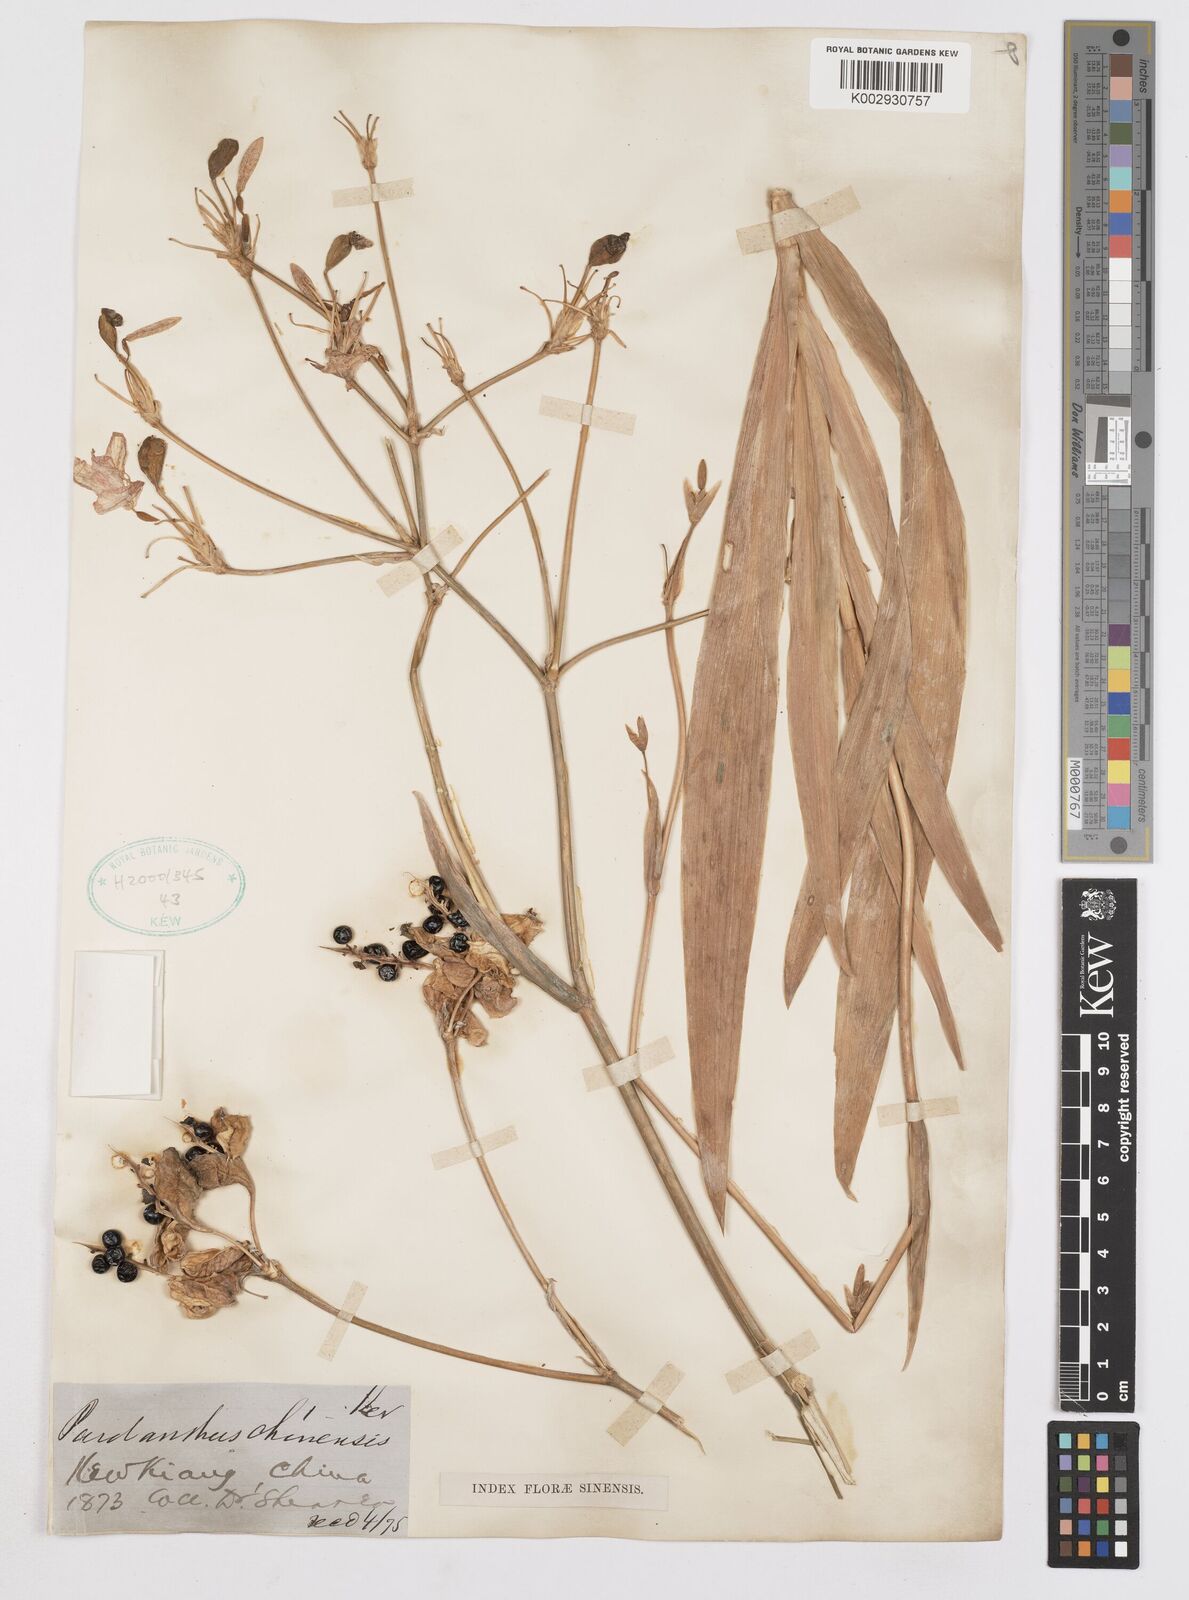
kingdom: Plantae
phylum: Tracheophyta
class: Liliopsida
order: Asparagales
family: Iridaceae
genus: Iris
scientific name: Iris dichotoma
